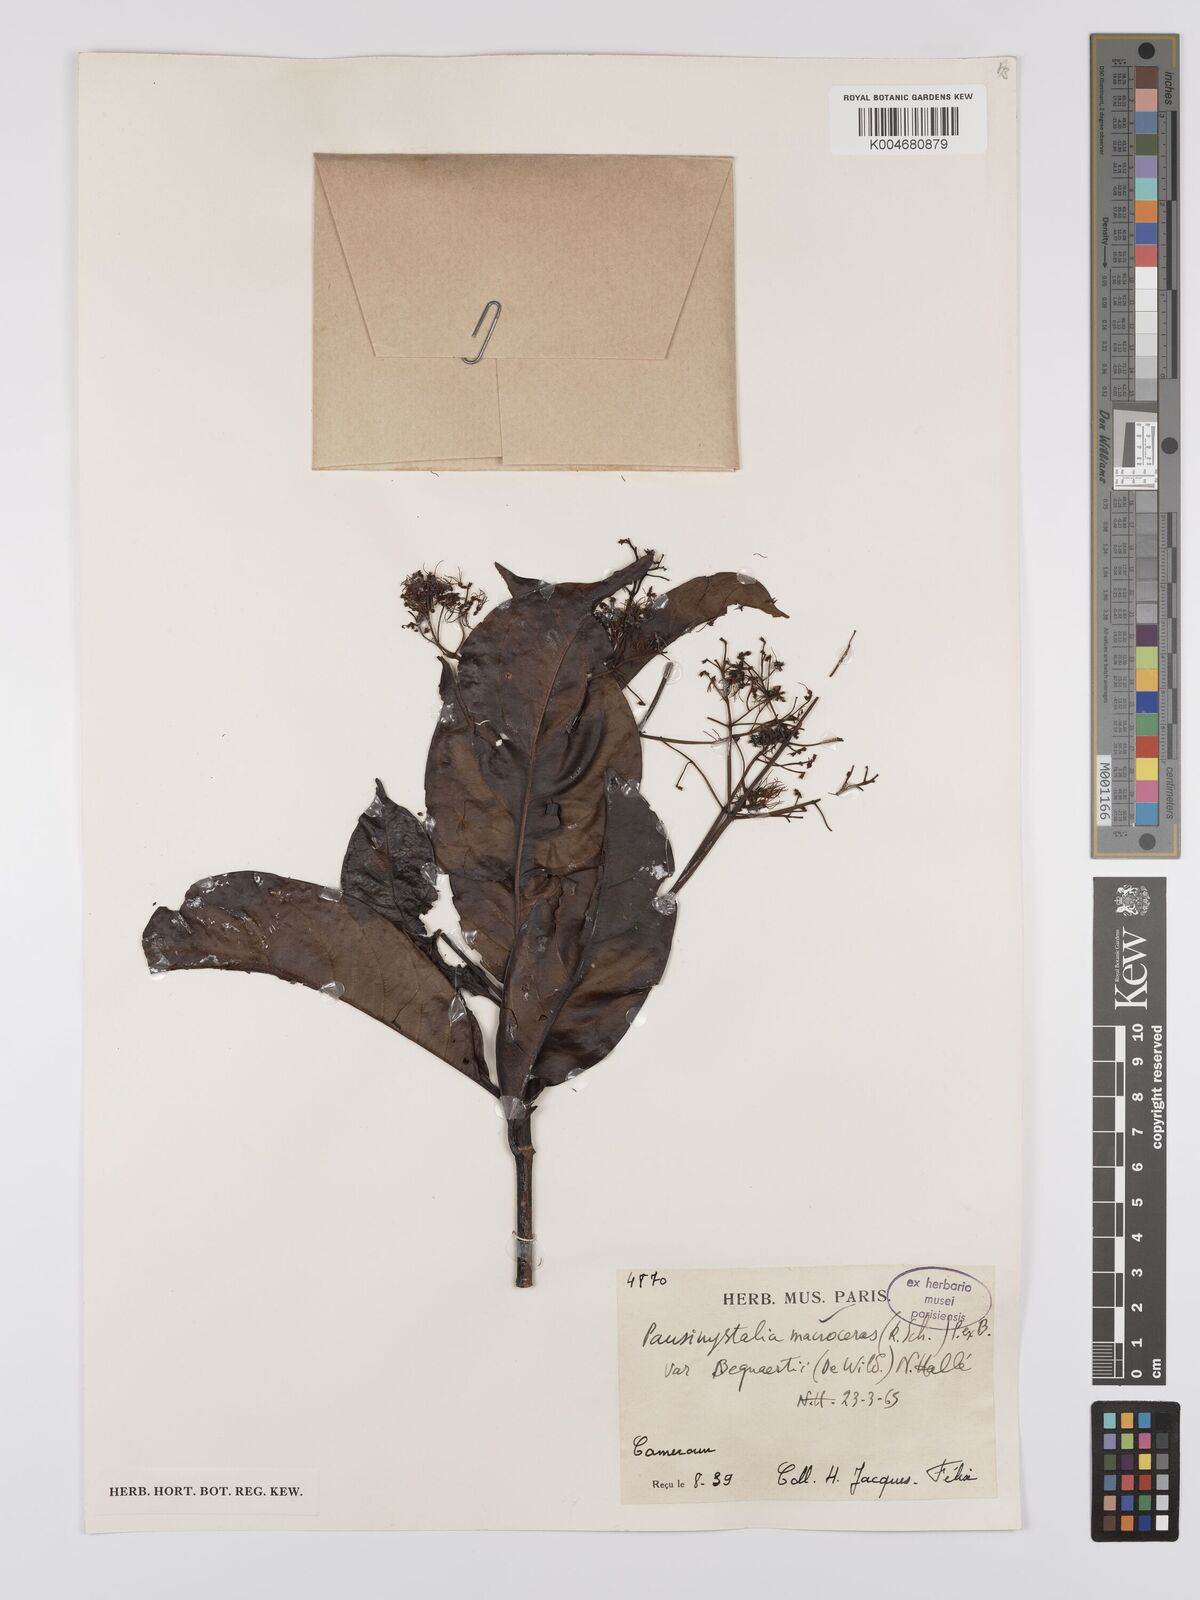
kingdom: Plantae
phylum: Tracheophyta
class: Magnoliopsida
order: Gentianales
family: Rubiaceae
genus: Corynanthe
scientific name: Corynanthe macroceras
